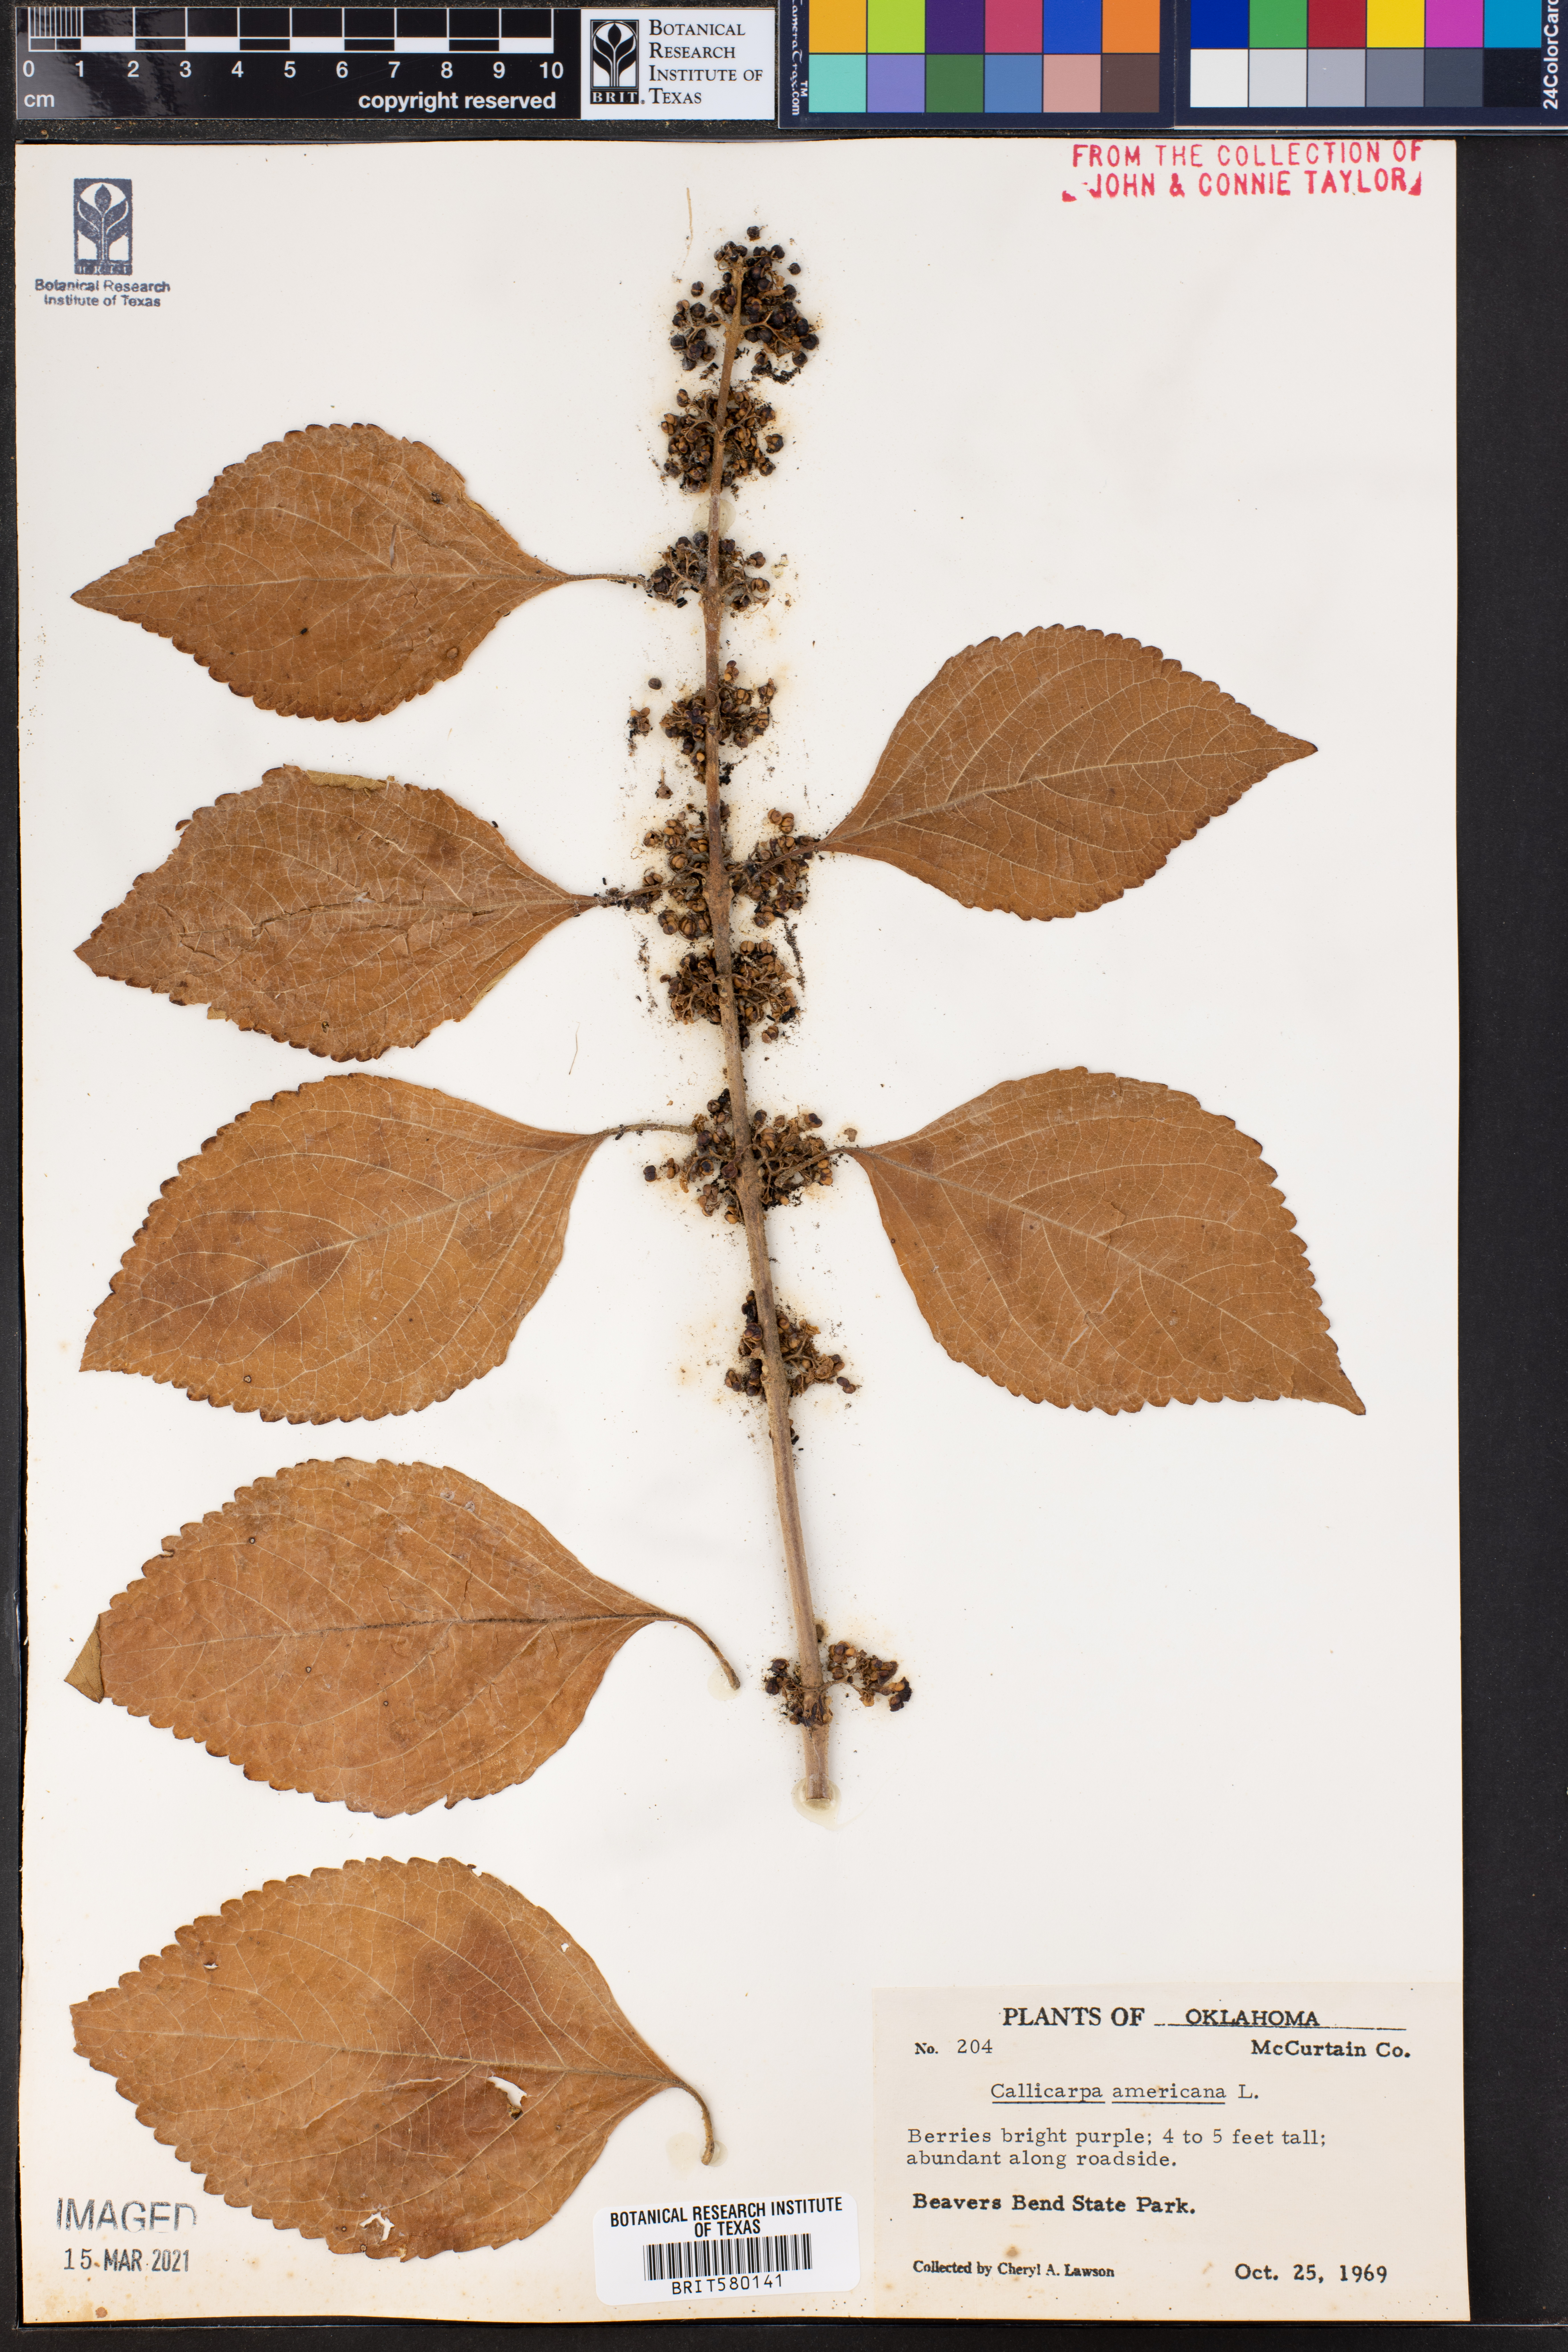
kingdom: Plantae
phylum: Tracheophyta
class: Magnoliopsida
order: Lamiales
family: Lamiaceae
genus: Callicarpa
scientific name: Callicarpa americana
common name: American beautyberry
